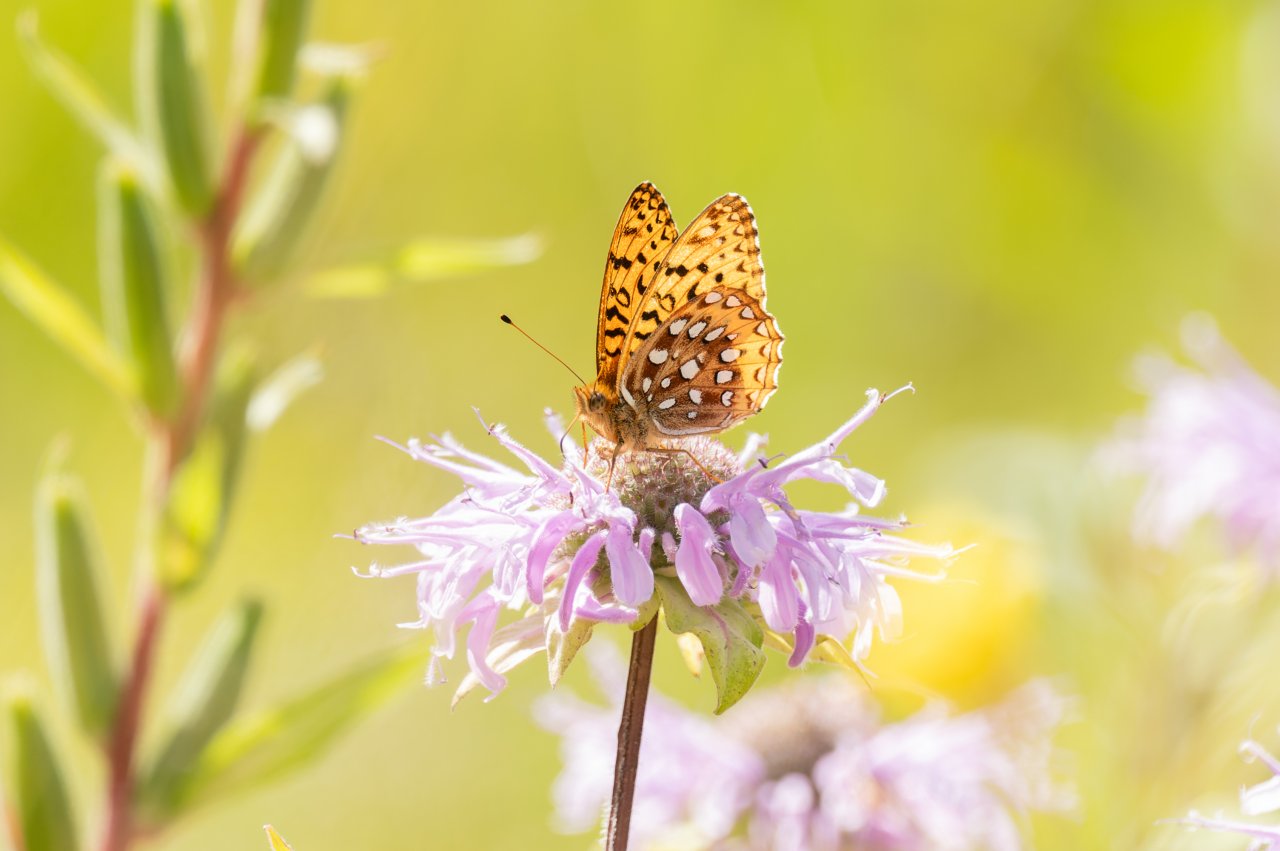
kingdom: Animalia
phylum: Arthropoda
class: Insecta
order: Lepidoptera
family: Nymphalidae
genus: Speyeria
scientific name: Speyeria aphrodite
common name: Aphrodite Fritillary
